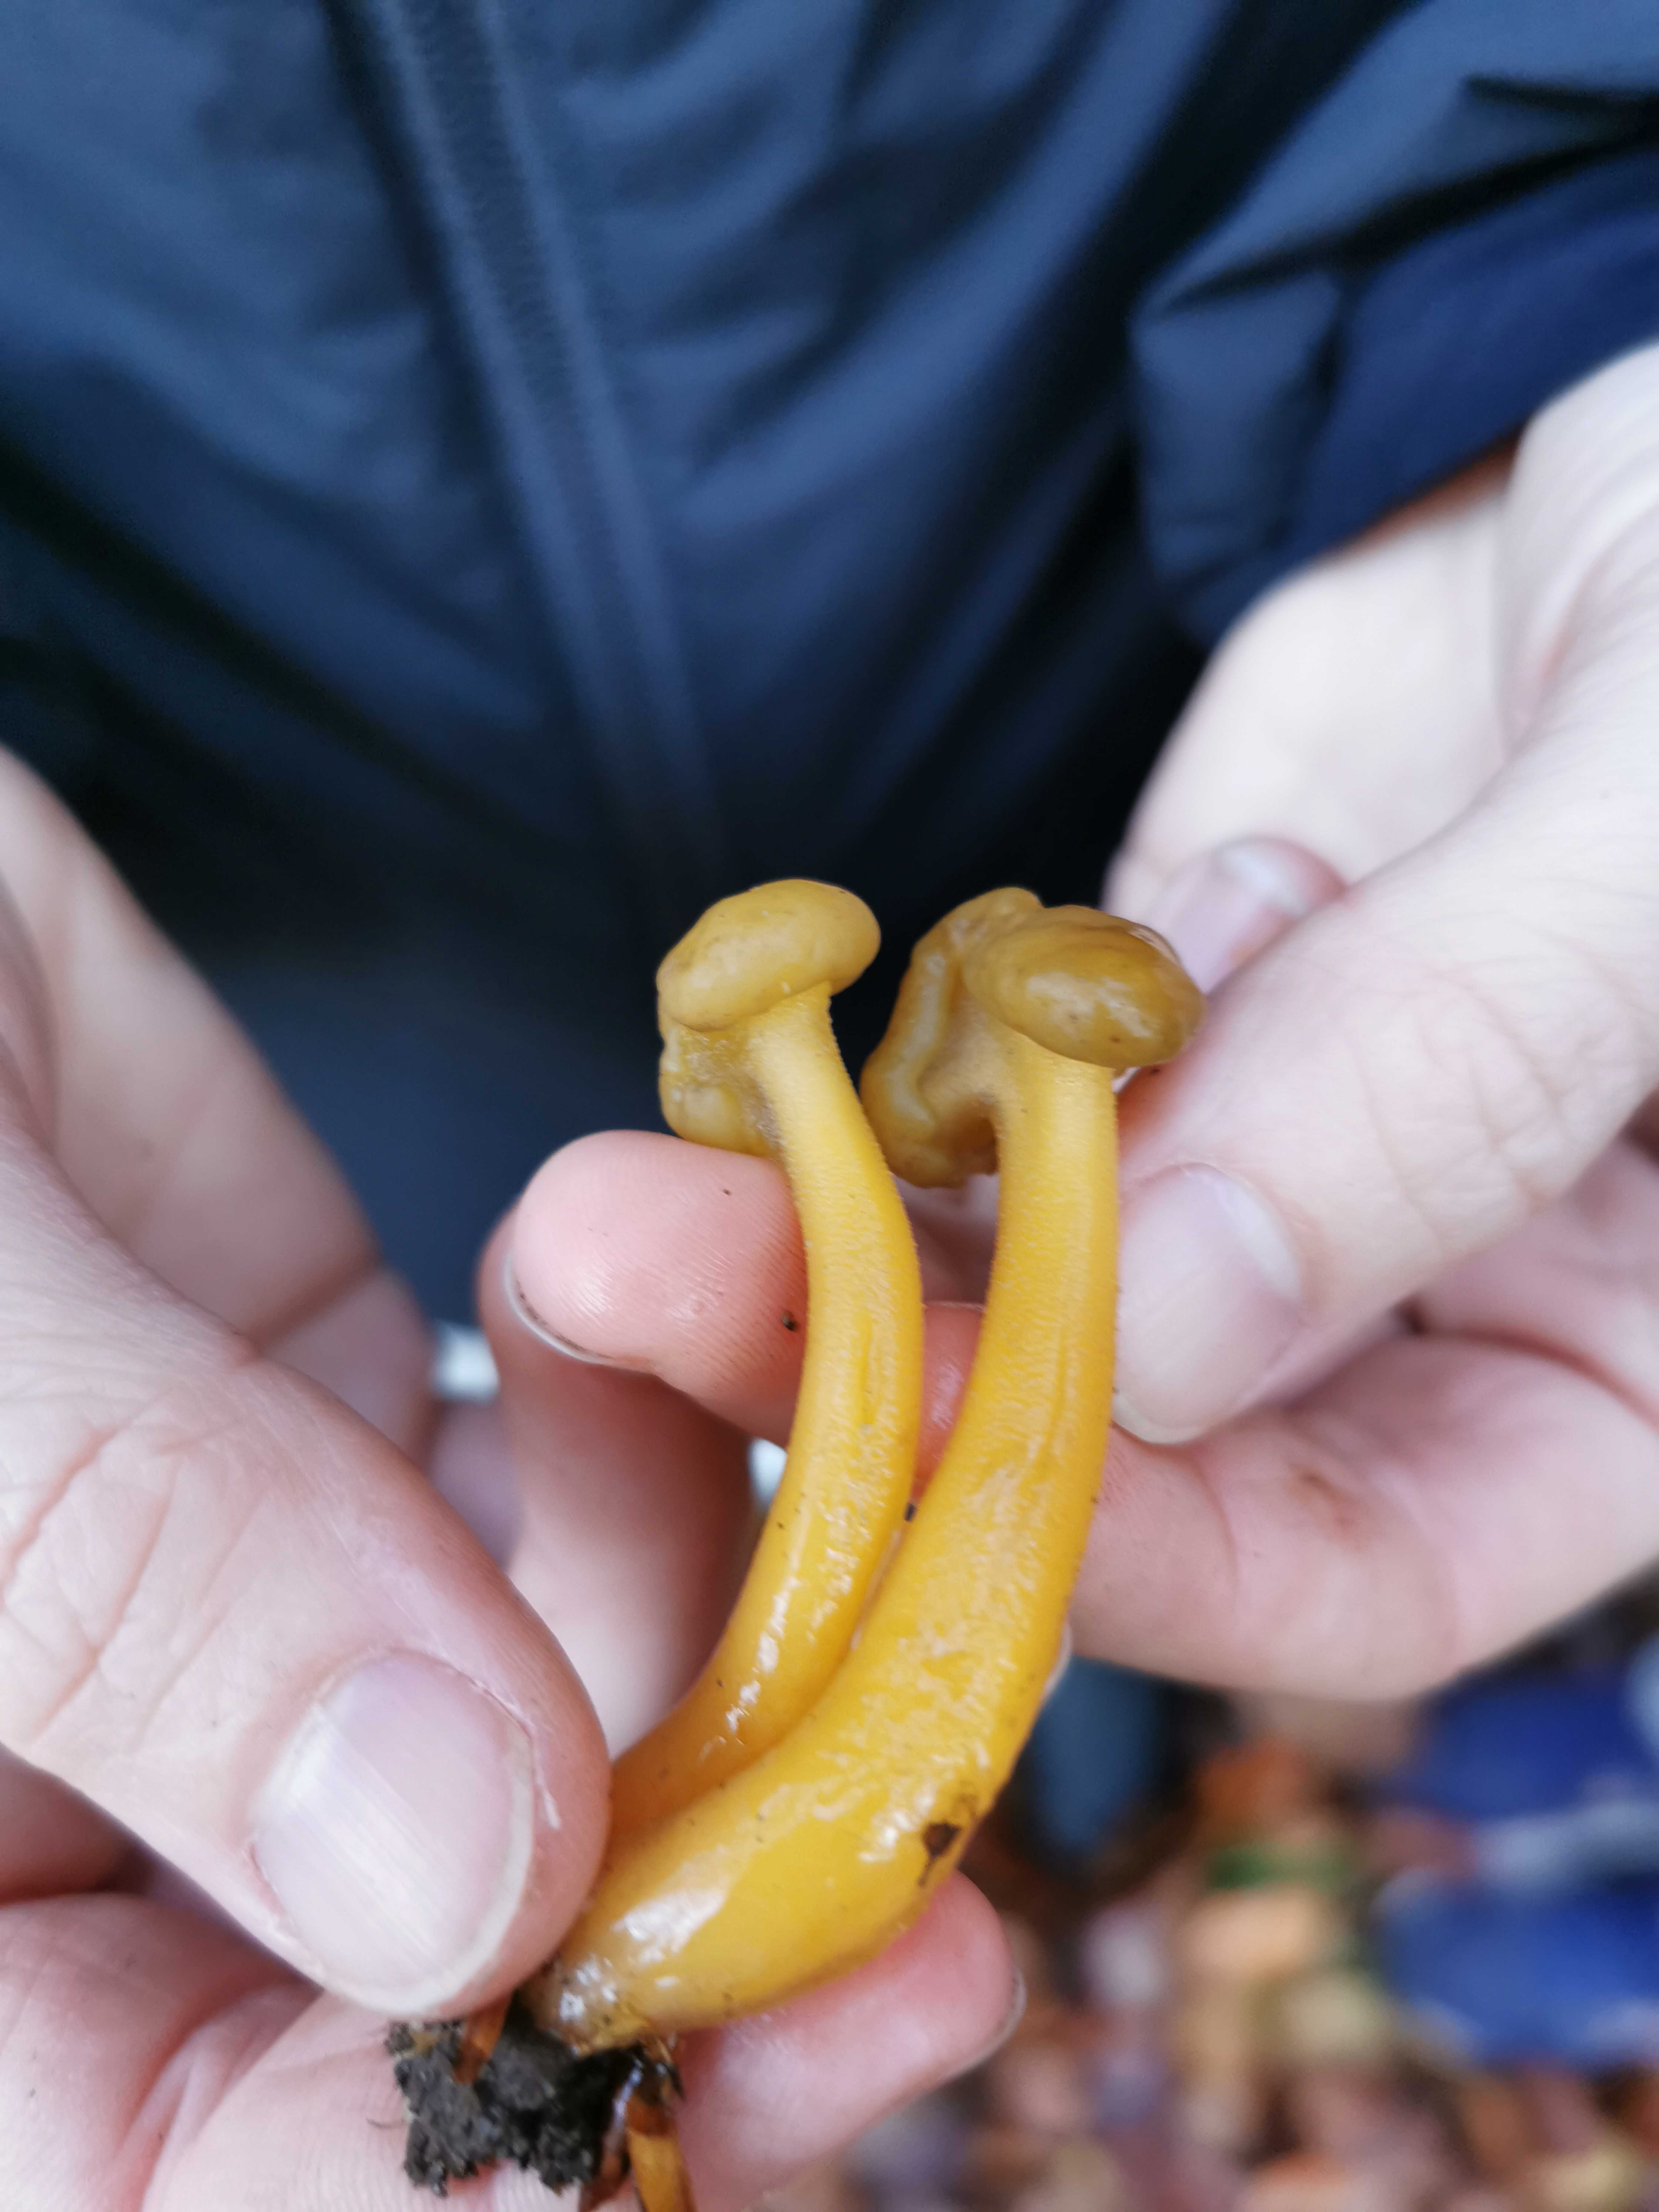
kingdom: Fungi
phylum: Ascomycota
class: Leotiomycetes
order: Leotiales
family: Leotiaceae
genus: Leotia
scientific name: Leotia lubrica
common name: ravsvamp
